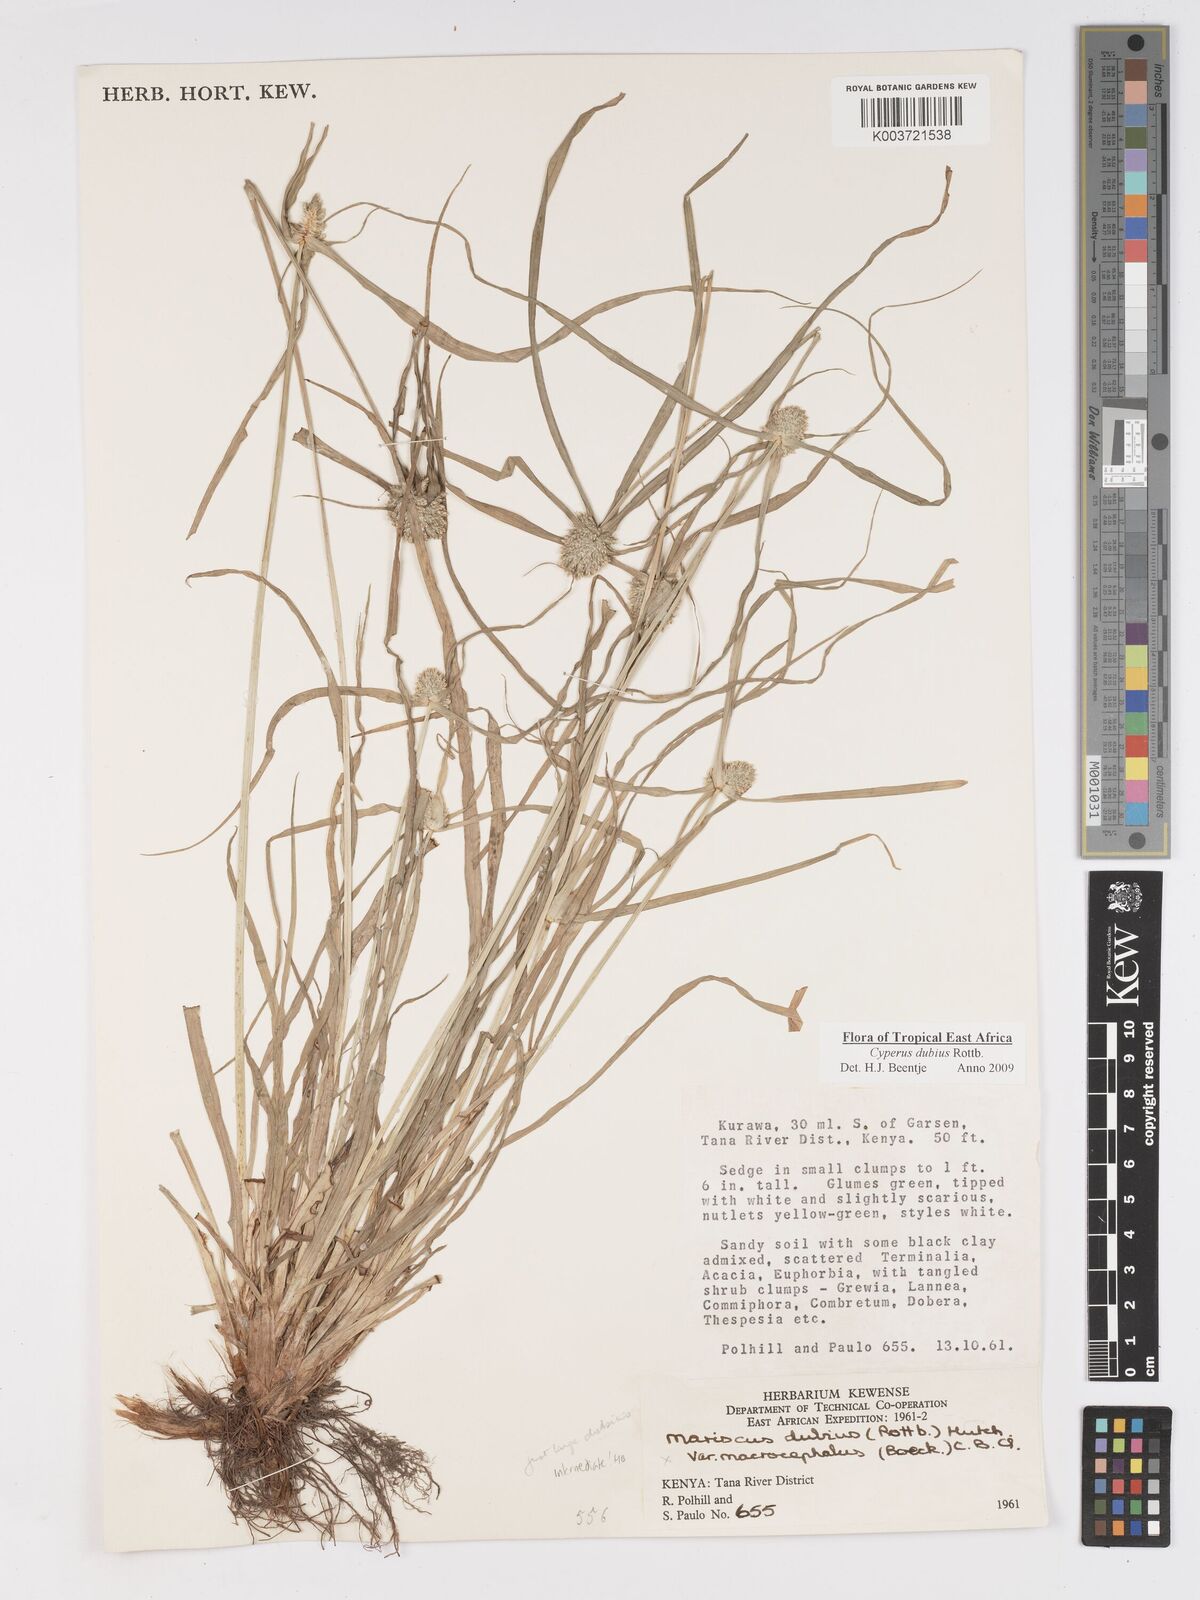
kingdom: Plantae
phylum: Tracheophyta
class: Liliopsida
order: Poales
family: Cyperaceae
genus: Cyperus
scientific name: Cyperus dubius
